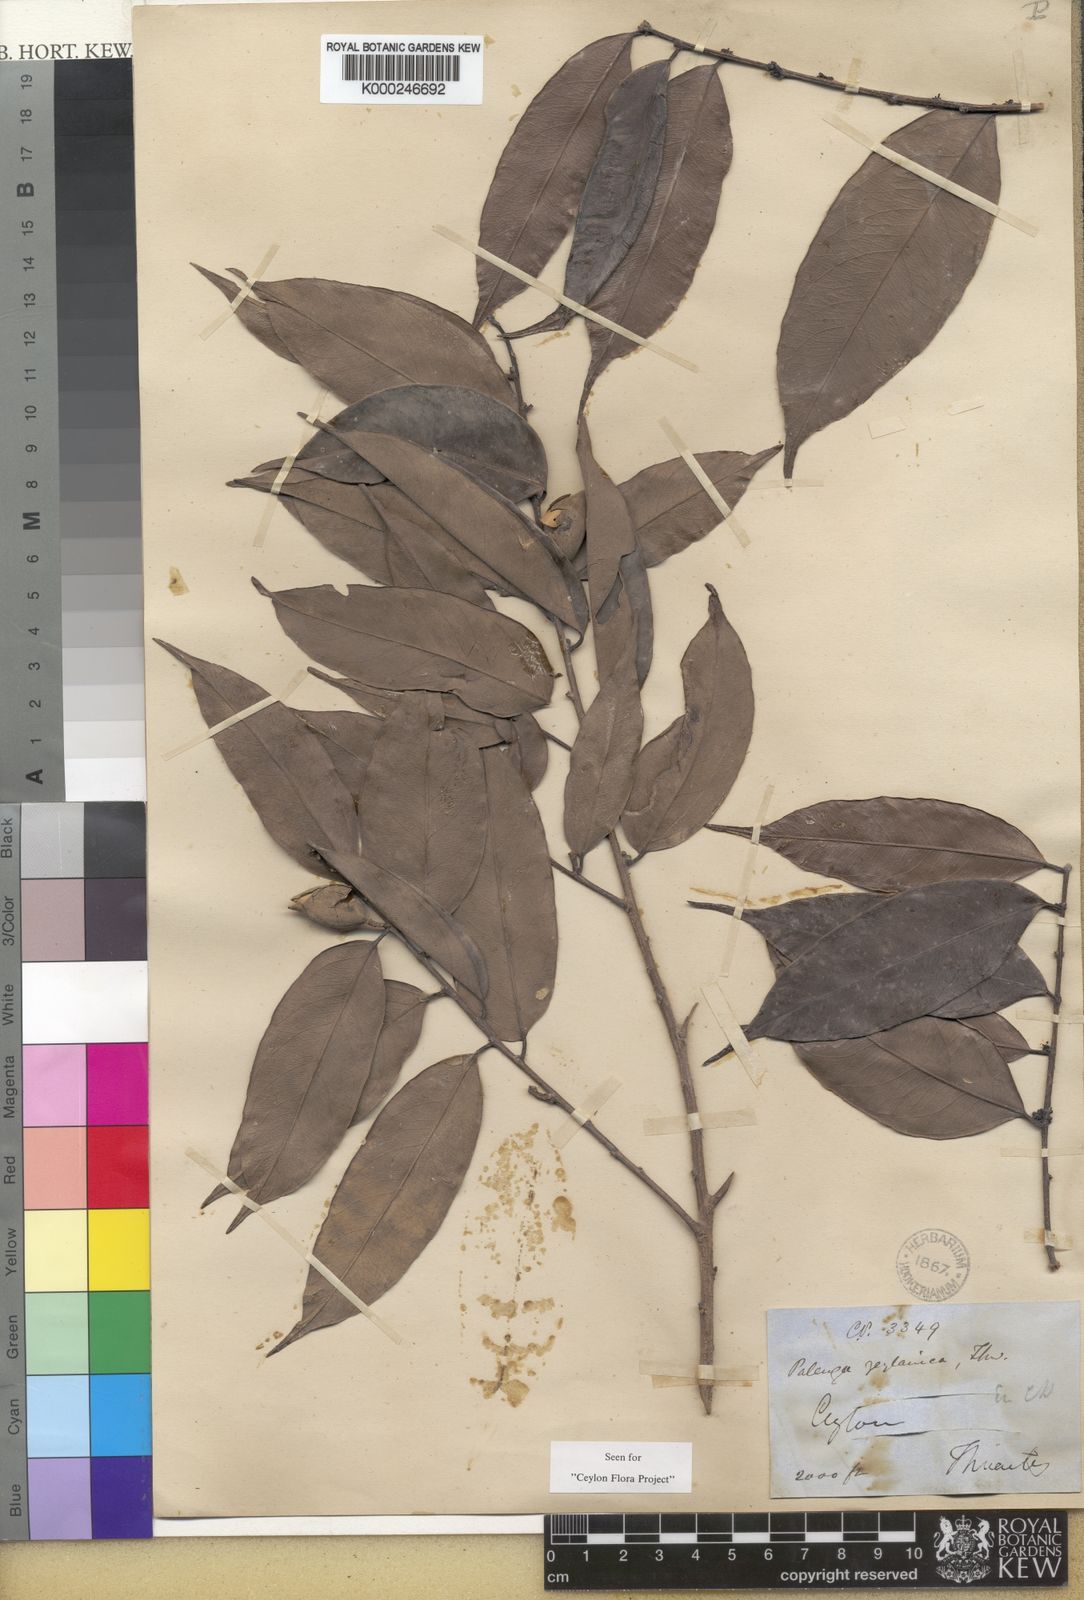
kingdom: Plantae
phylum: Tracheophyta
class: Magnoliopsida
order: Malpighiales
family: Putranjivaceae
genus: Putranjiva
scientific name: Putranjiva zeylanica
